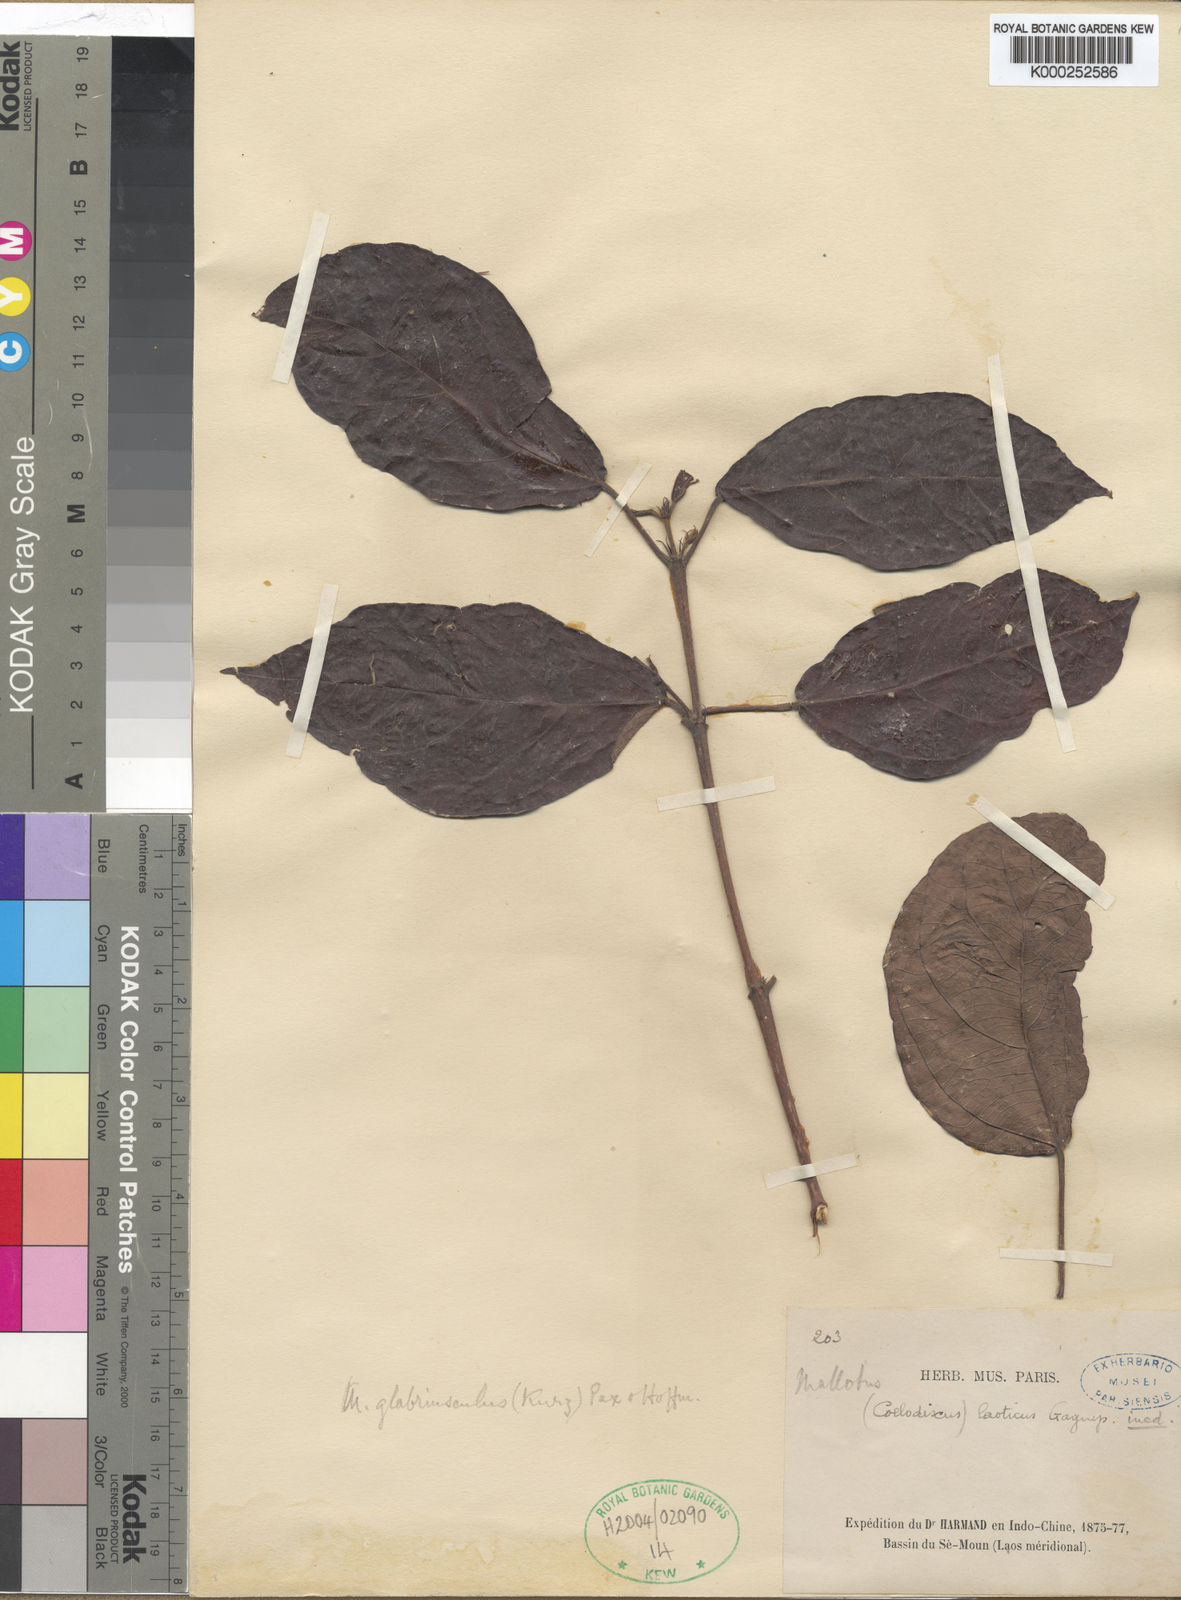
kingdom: Plantae
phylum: Tracheophyta
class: Magnoliopsida
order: Malpighiales
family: Euphorbiaceae
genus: Mallotus
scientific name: Mallotus glabriusculus
